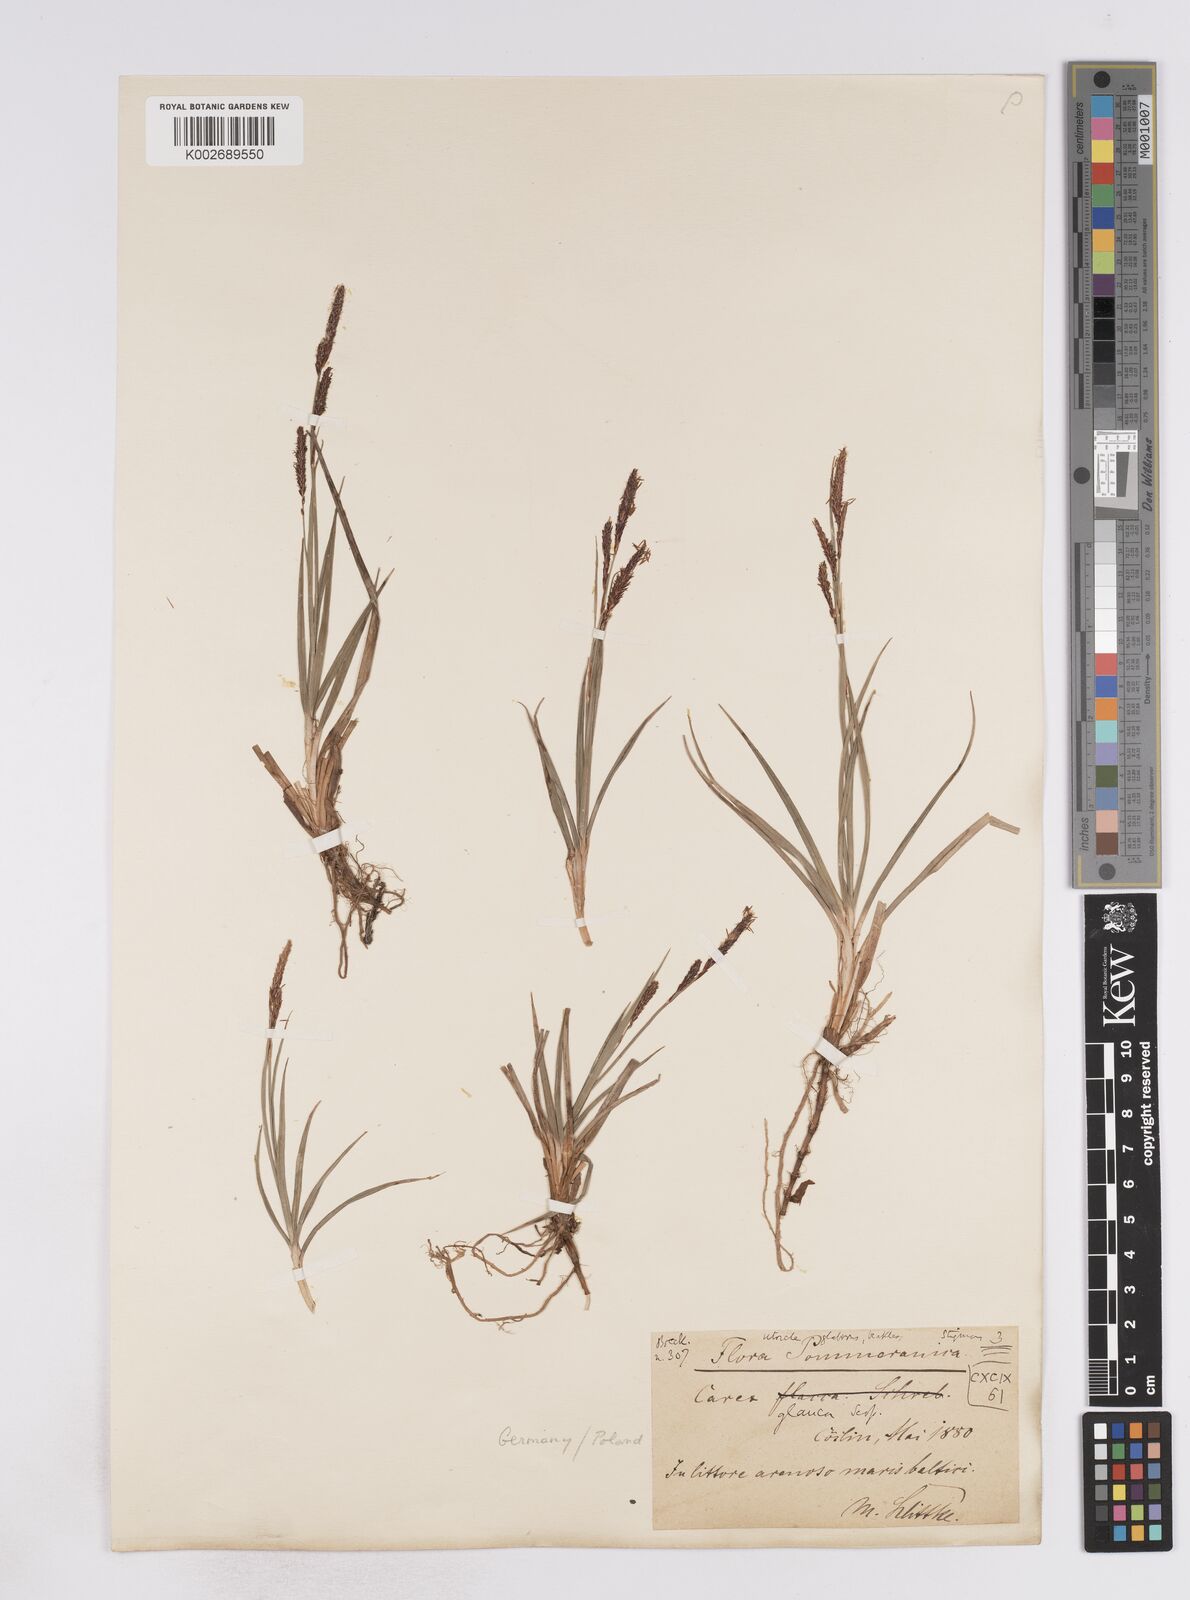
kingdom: Plantae
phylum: Tracheophyta
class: Liliopsida
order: Poales
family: Cyperaceae
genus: Carex
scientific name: Carex flacca
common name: Glaucous sedge
